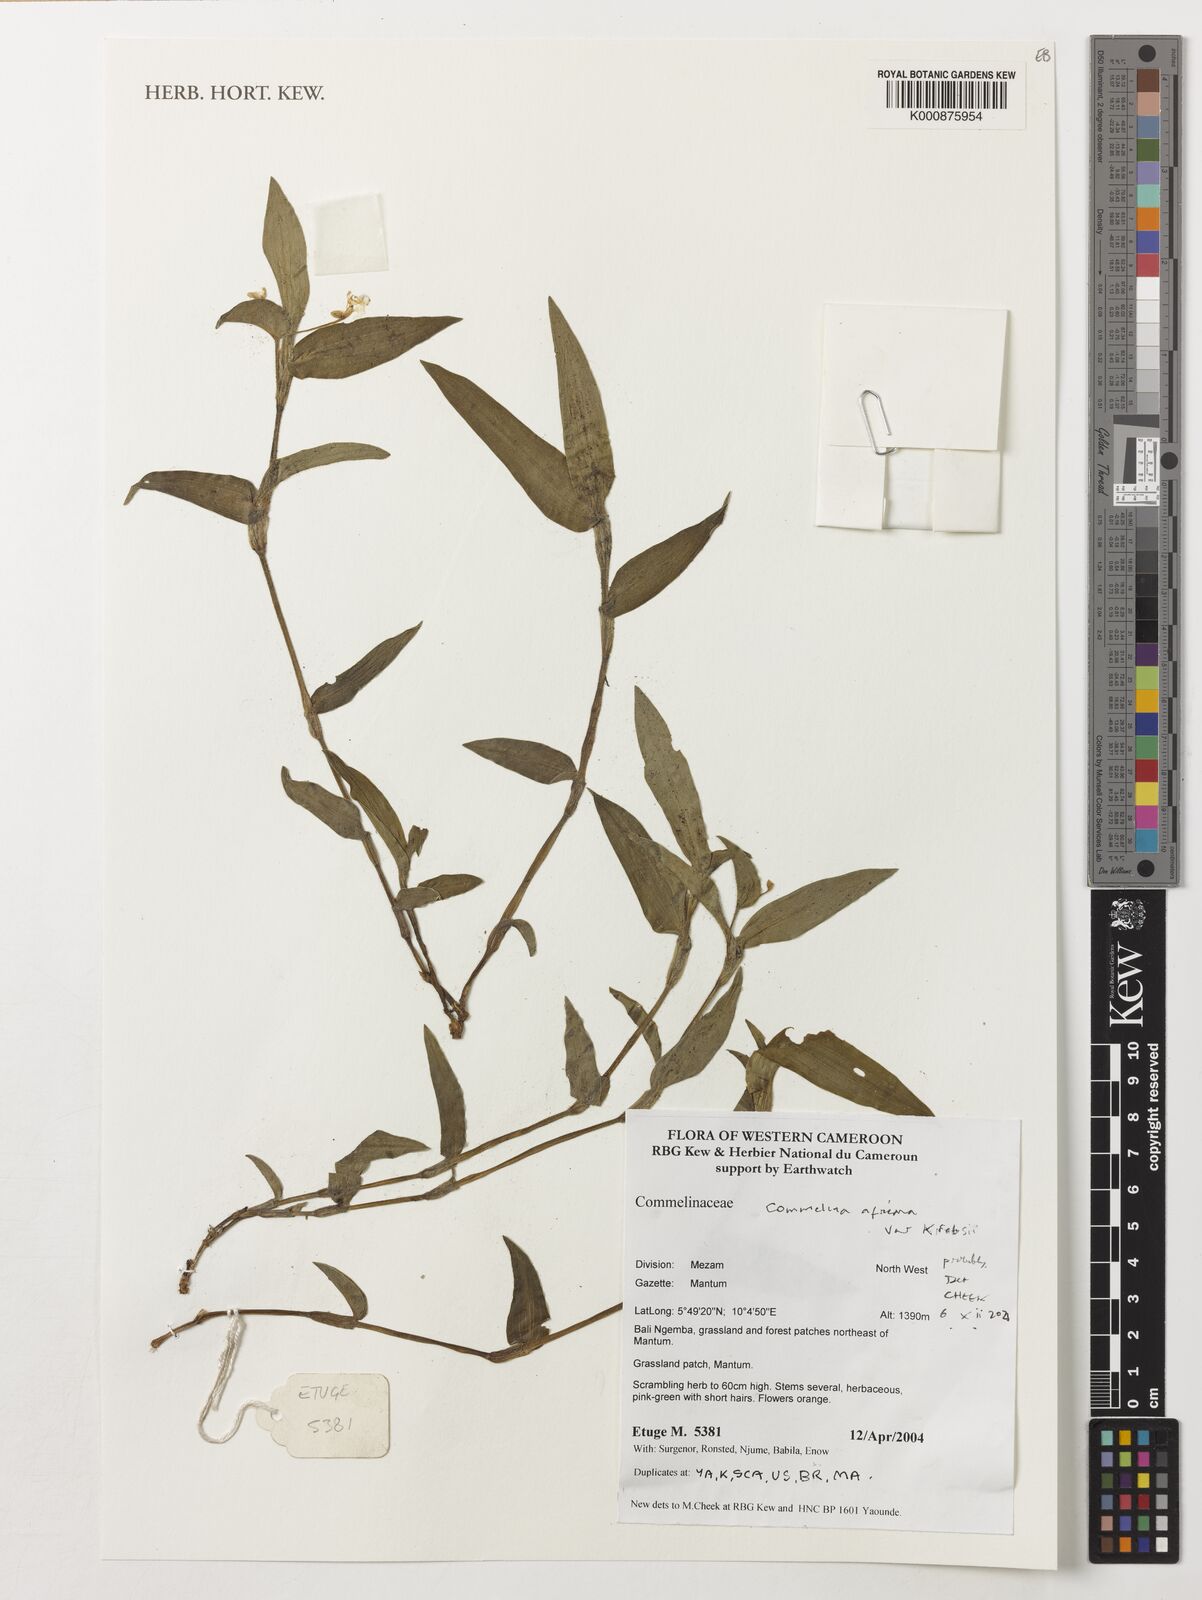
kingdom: Plantae
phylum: Tracheophyta
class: Liliopsida
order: Commelinales
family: Commelinaceae
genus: Commelina
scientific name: Commelina africana
